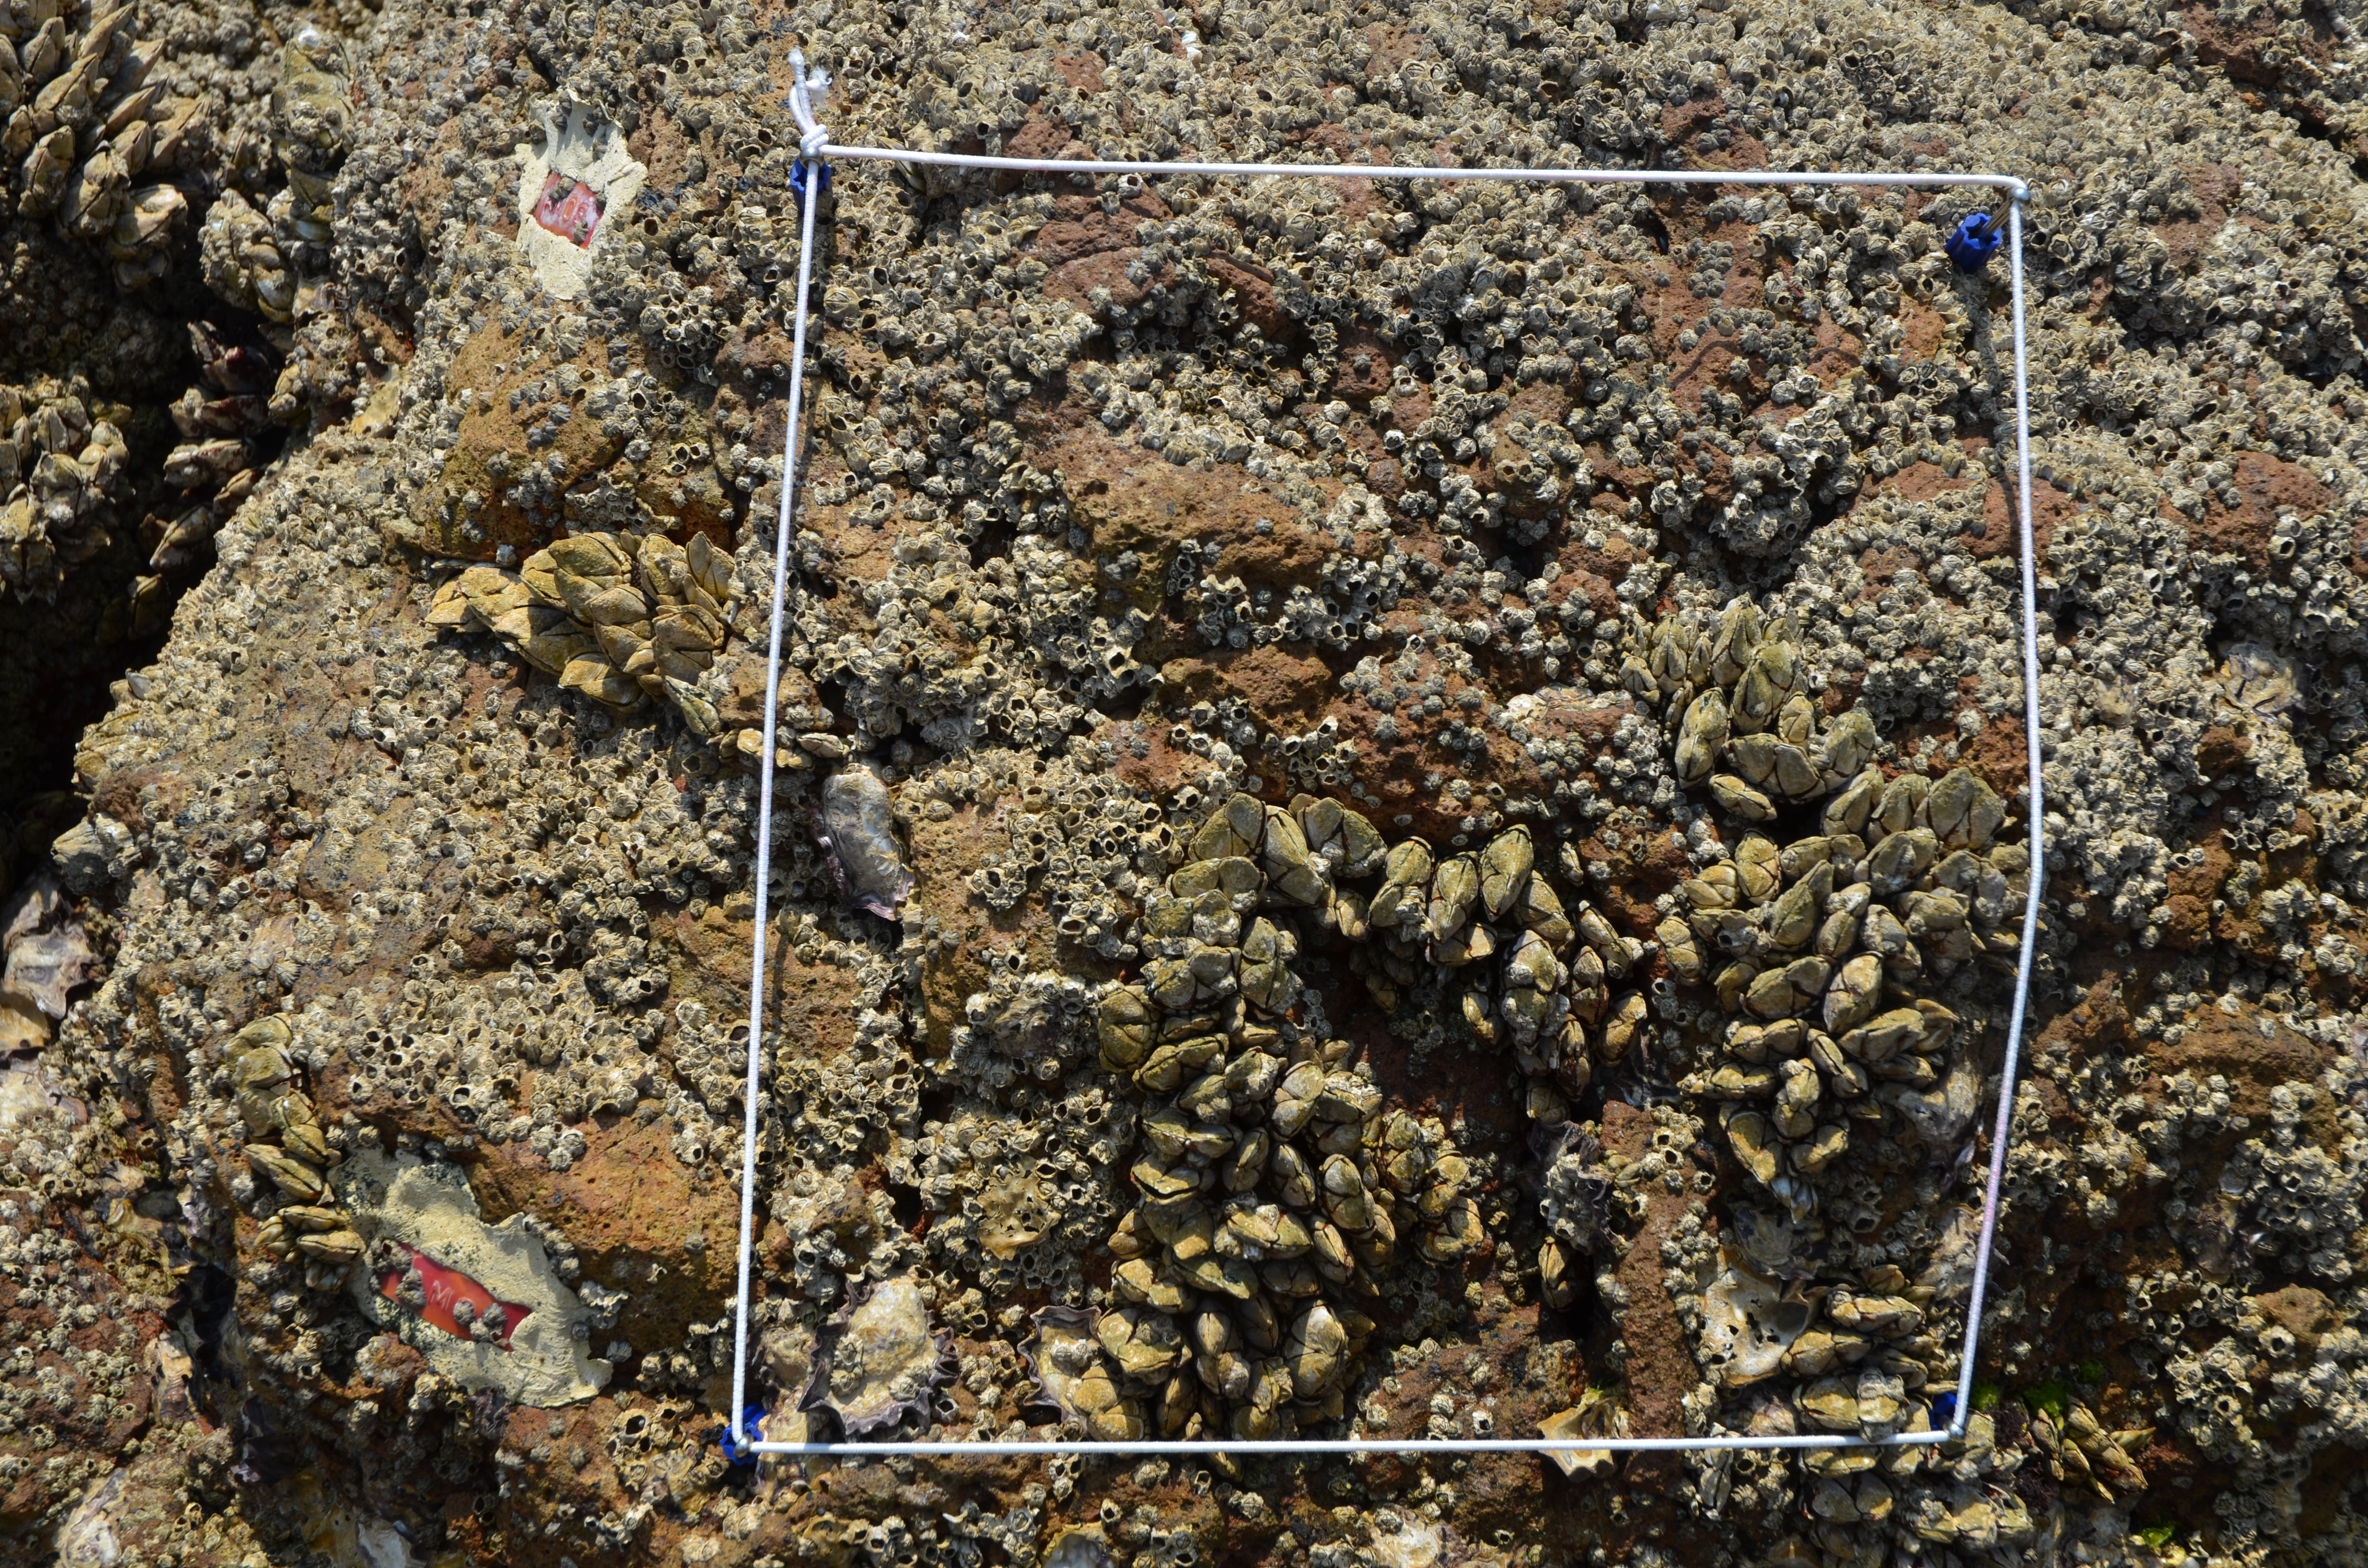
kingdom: Animalia
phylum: Arthropoda
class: Maxillopoda
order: Sessilia
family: Chthamalidae
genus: Chthamalus
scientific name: Chthamalus challengeri
